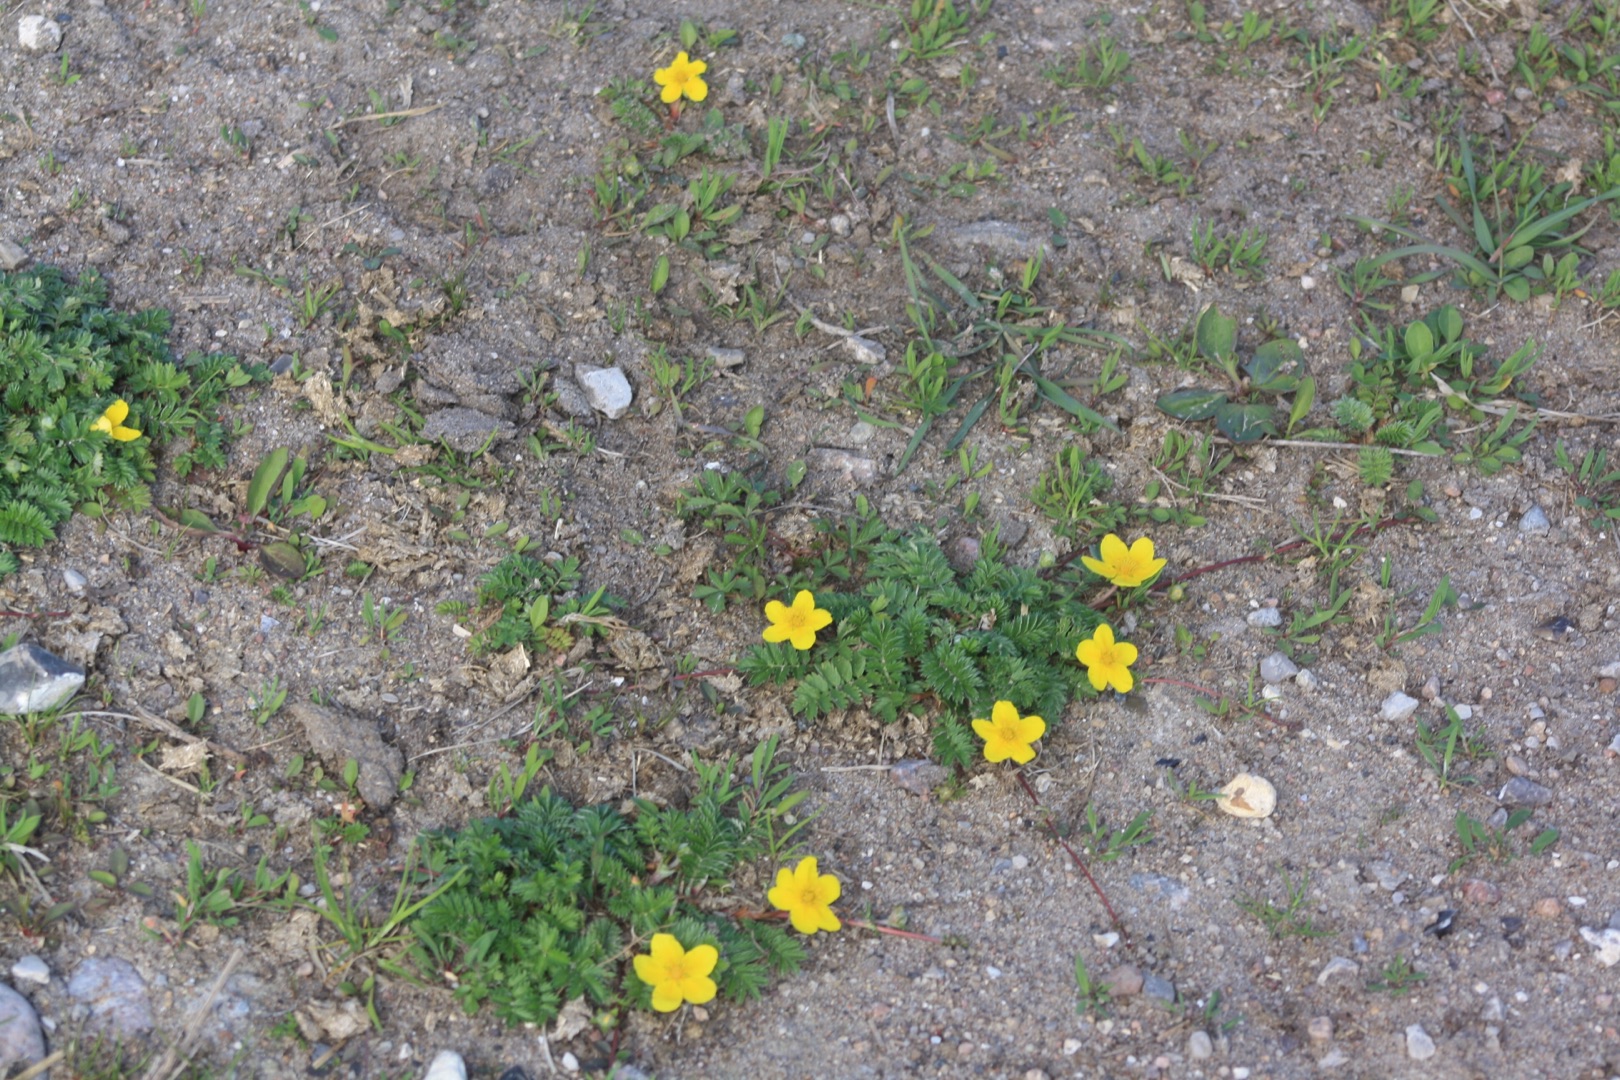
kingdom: Plantae
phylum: Tracheophyta
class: Magnoliopsida
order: Rosales
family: Rosaceae
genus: Argentina
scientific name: Argentina anserina
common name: Gåsepotentil
